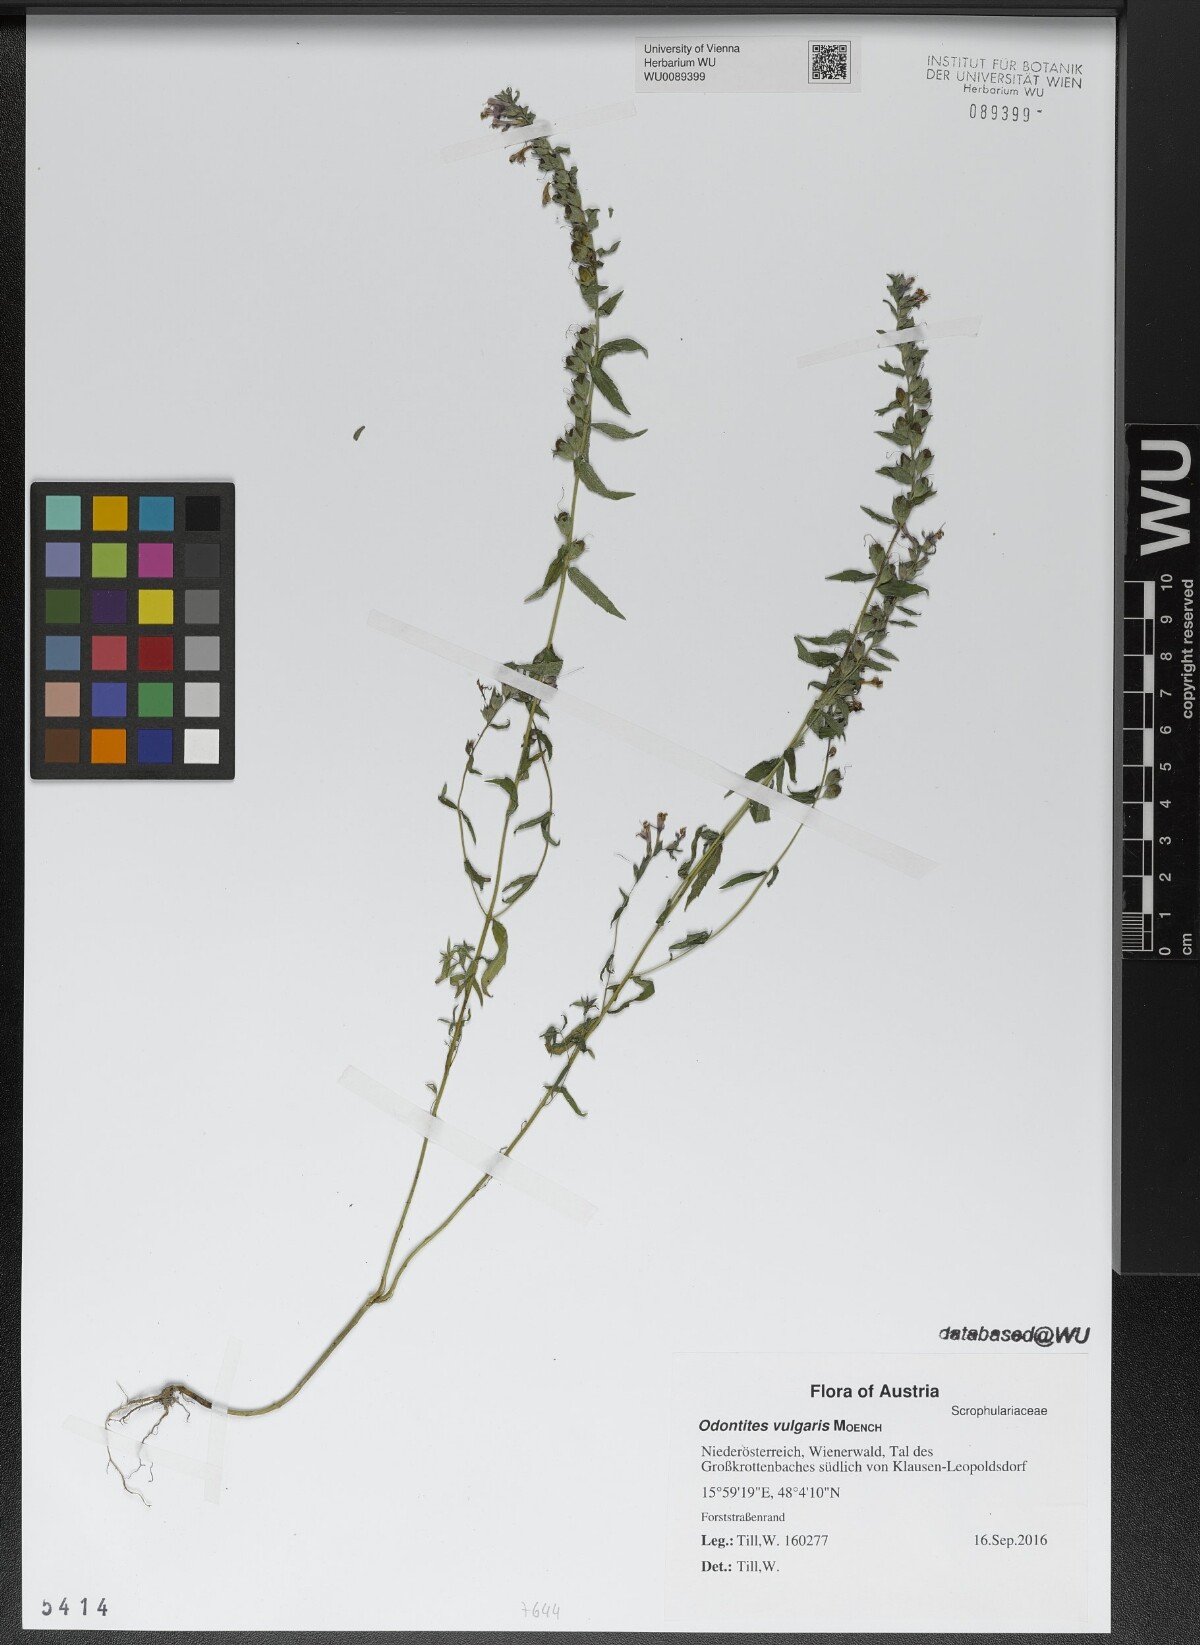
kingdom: Plantae
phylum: Tracheophyta
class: Magnoliopsida
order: Lamiales
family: Orobanchaceae
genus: Odontites
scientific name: Odontites vulgaris
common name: Broomrape
